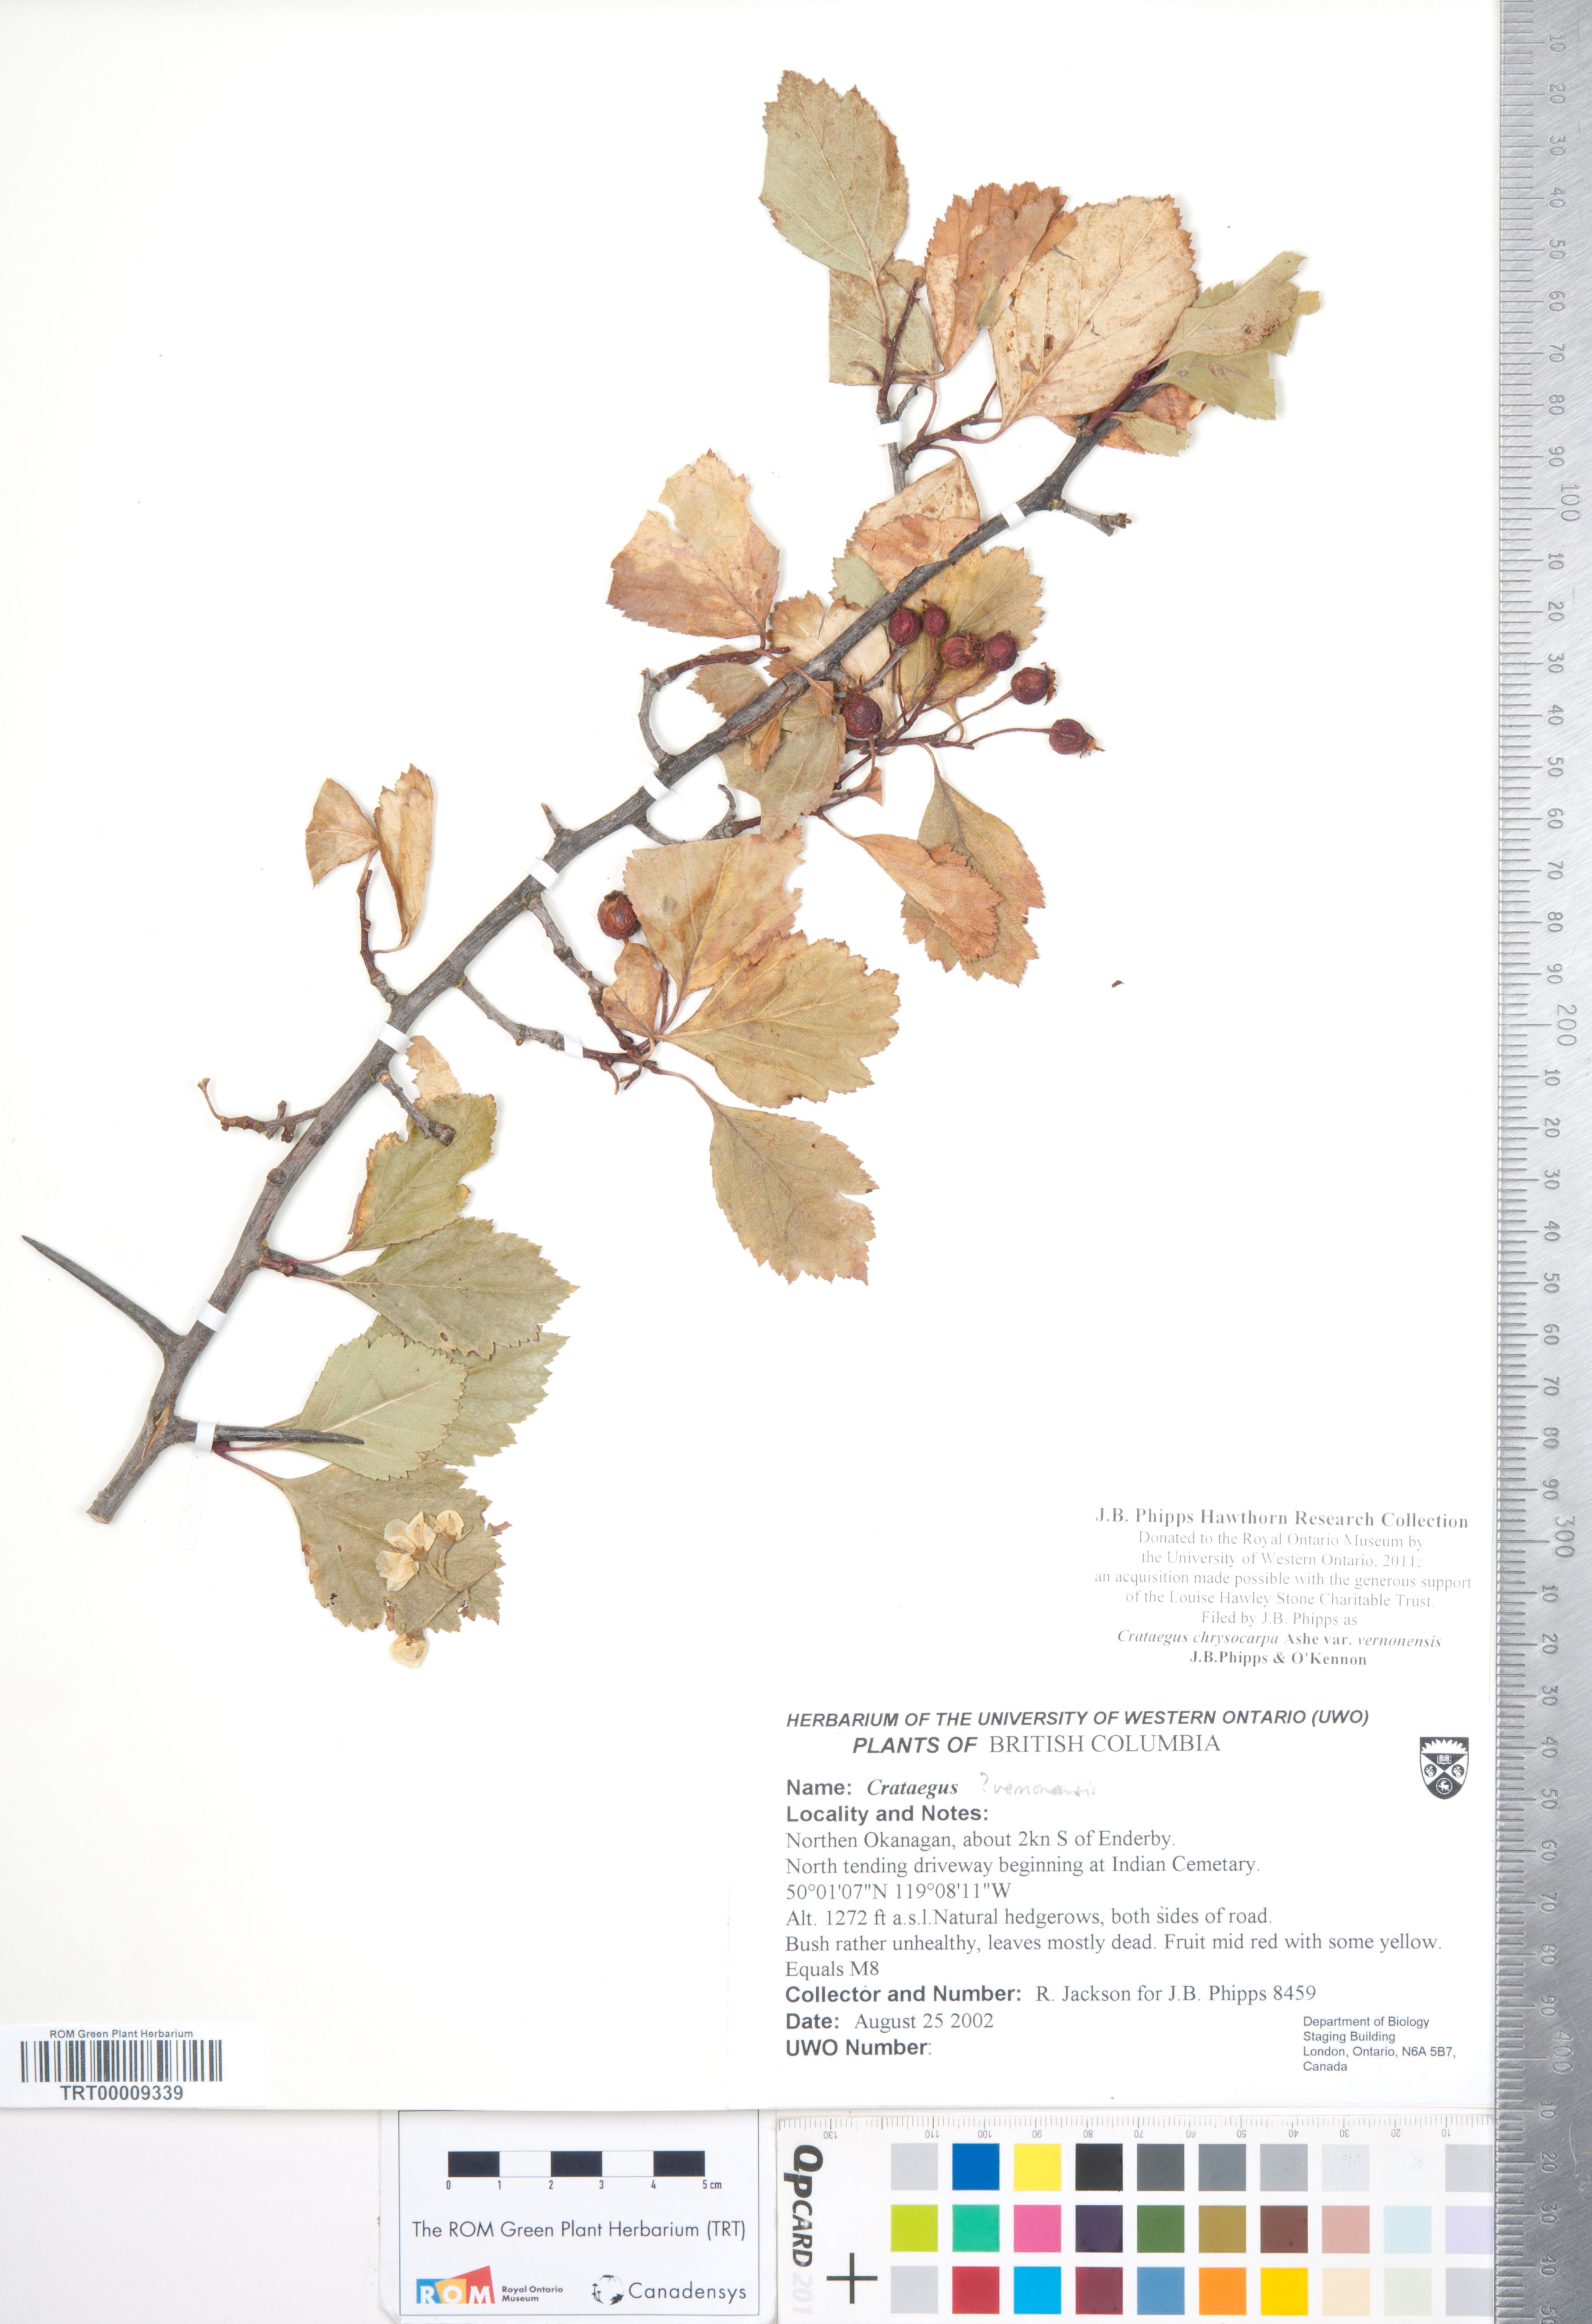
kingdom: Plantae
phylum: Tracheophyta
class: Magnoliopsida
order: Rosales
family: Rosaceae
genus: Crataegus
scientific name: Crataegus chrysocarpa
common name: Fire-berry hawthorn
